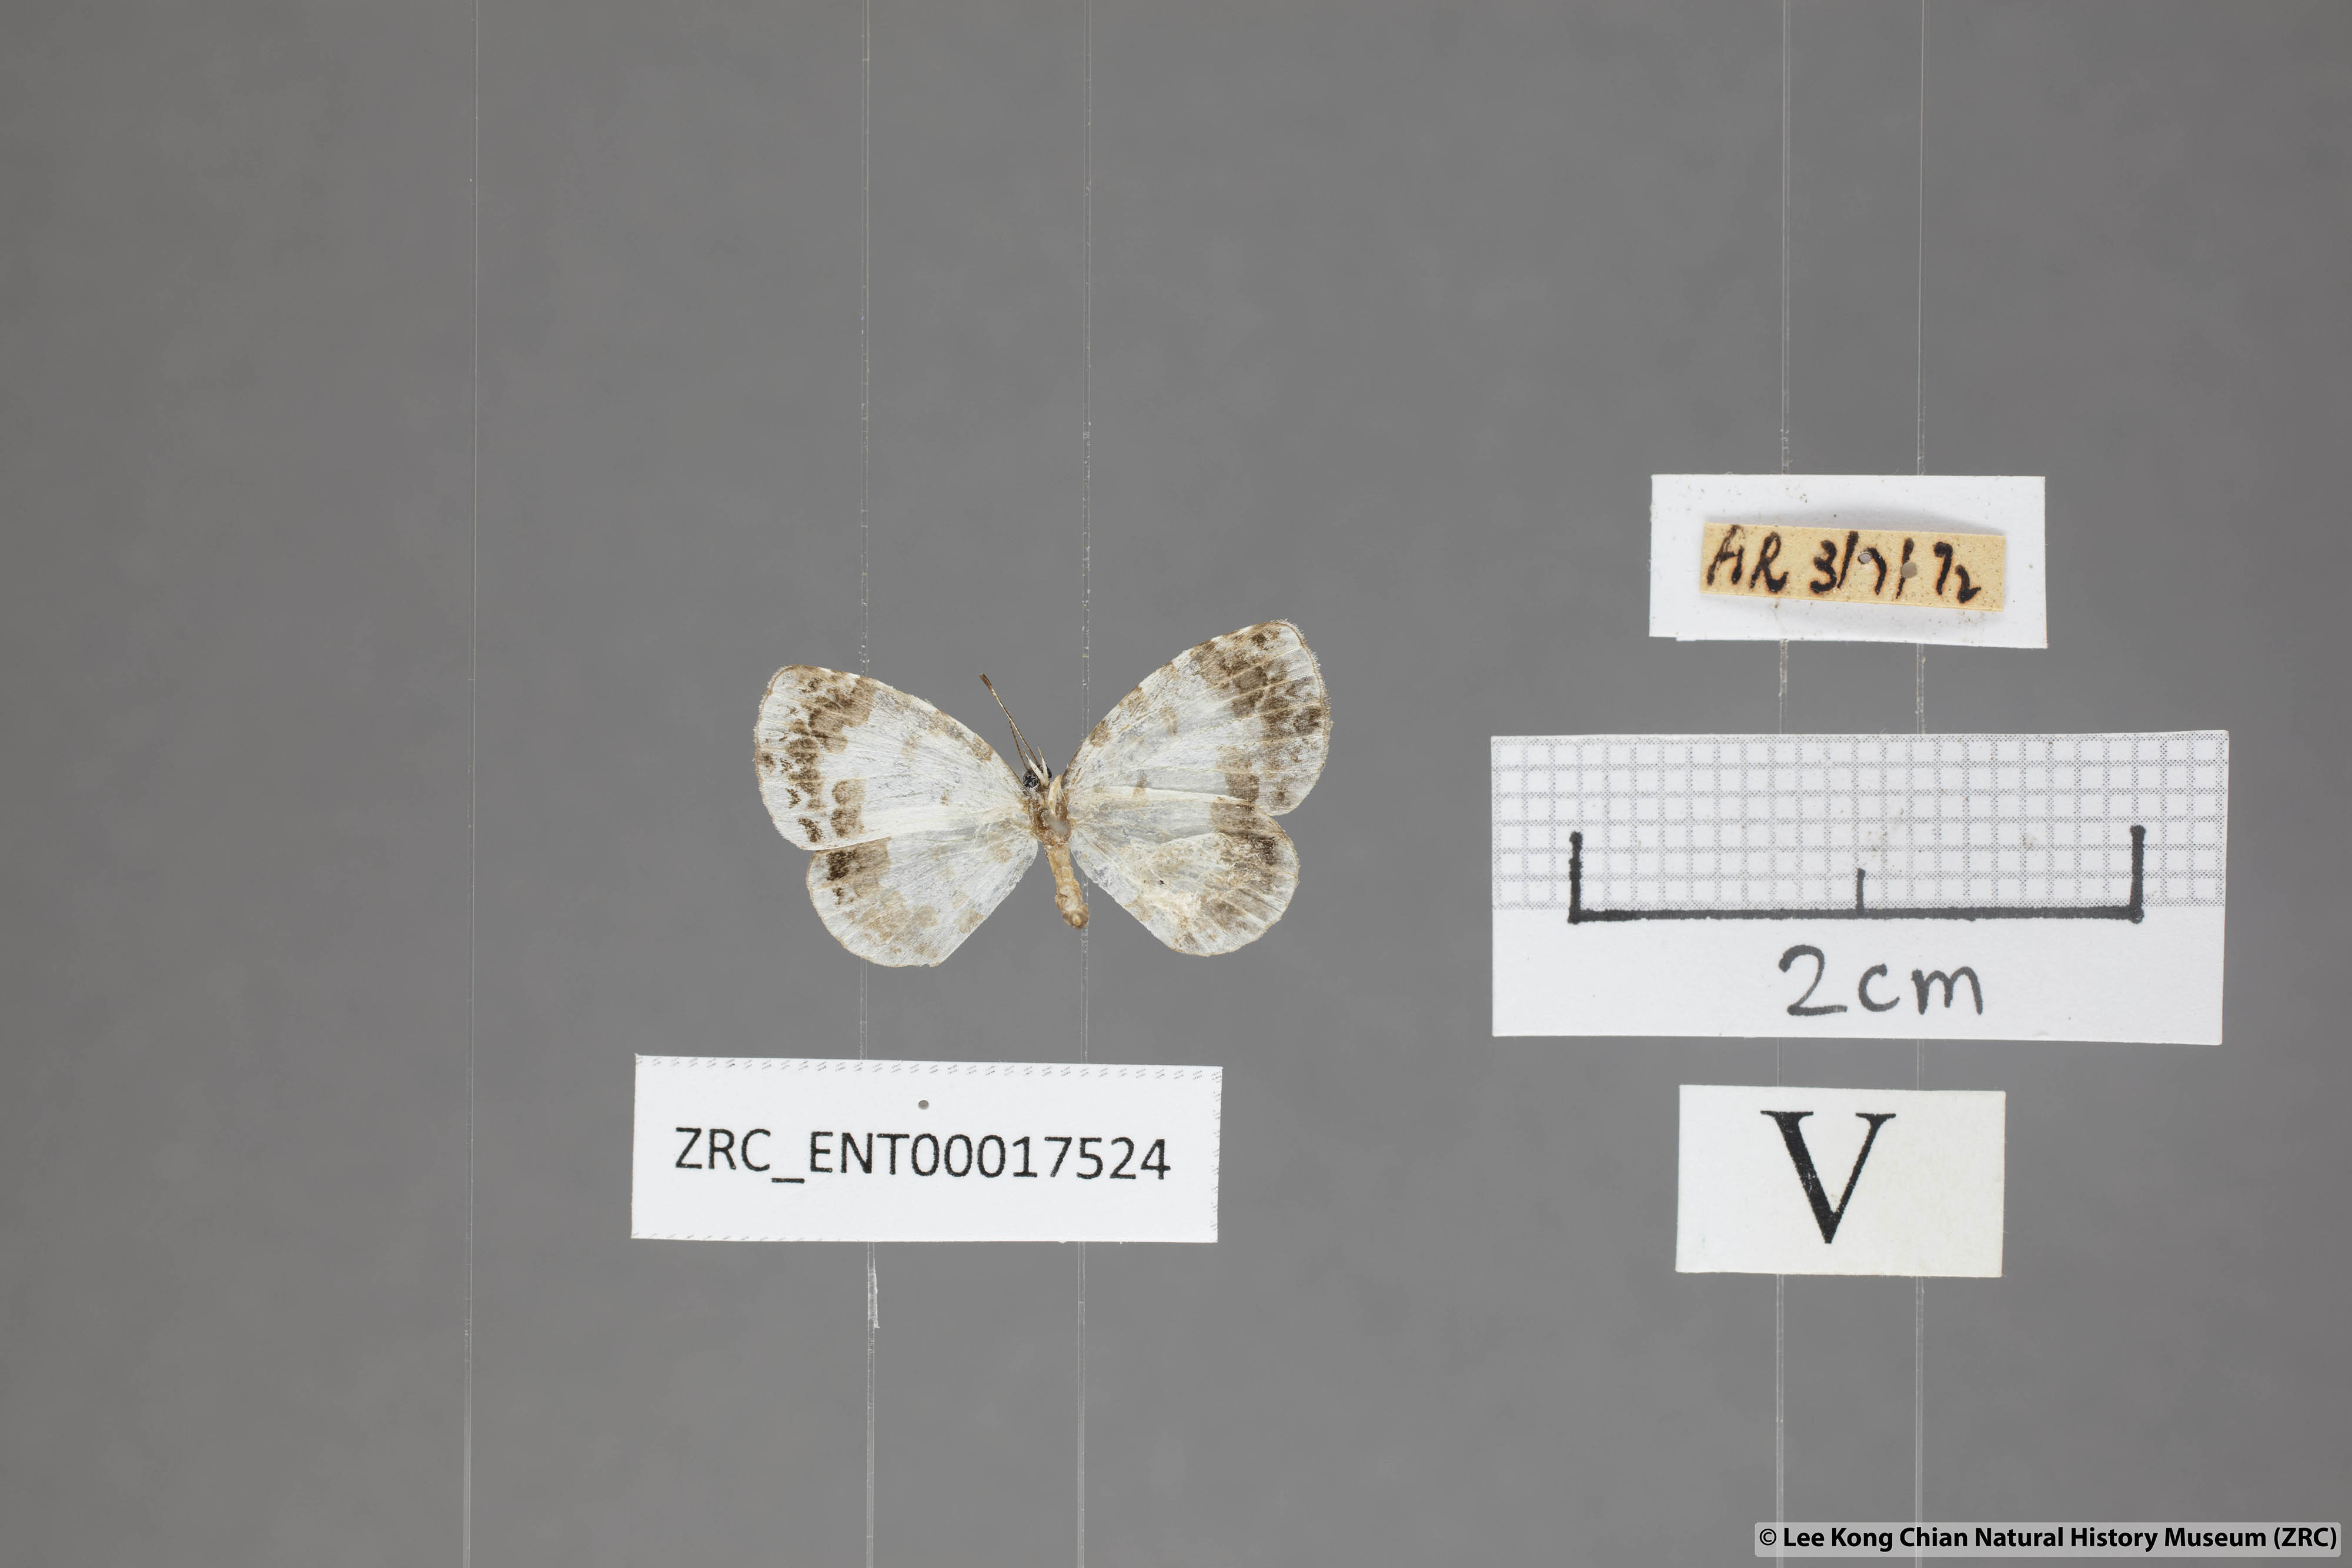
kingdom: Animalia
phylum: Arthropoda
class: Insecta
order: Lepidoptera
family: Lycaenidae
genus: Taraka
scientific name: Taraka mahanetra
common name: Lesser pierrot
